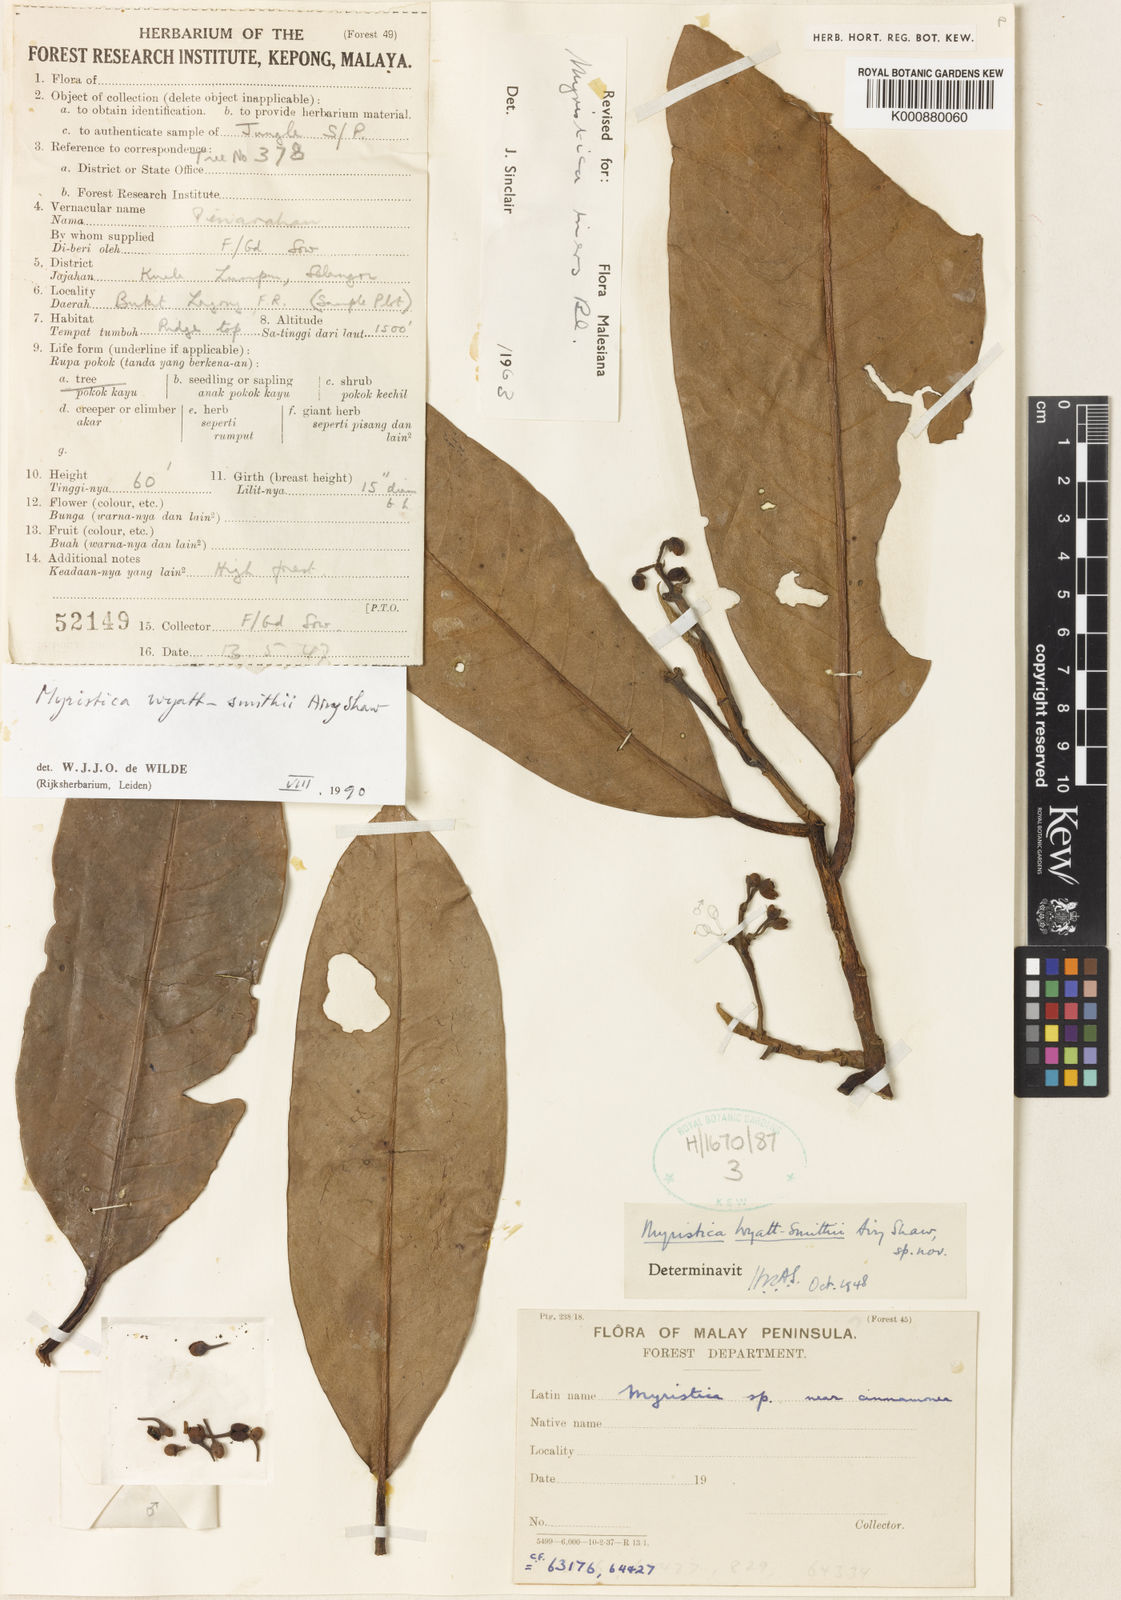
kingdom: Plantae
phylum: Tracheophyta
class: Magnoliopsida
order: Magnoliales
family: Myristicaceae
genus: Myristica
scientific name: Myristica iners
